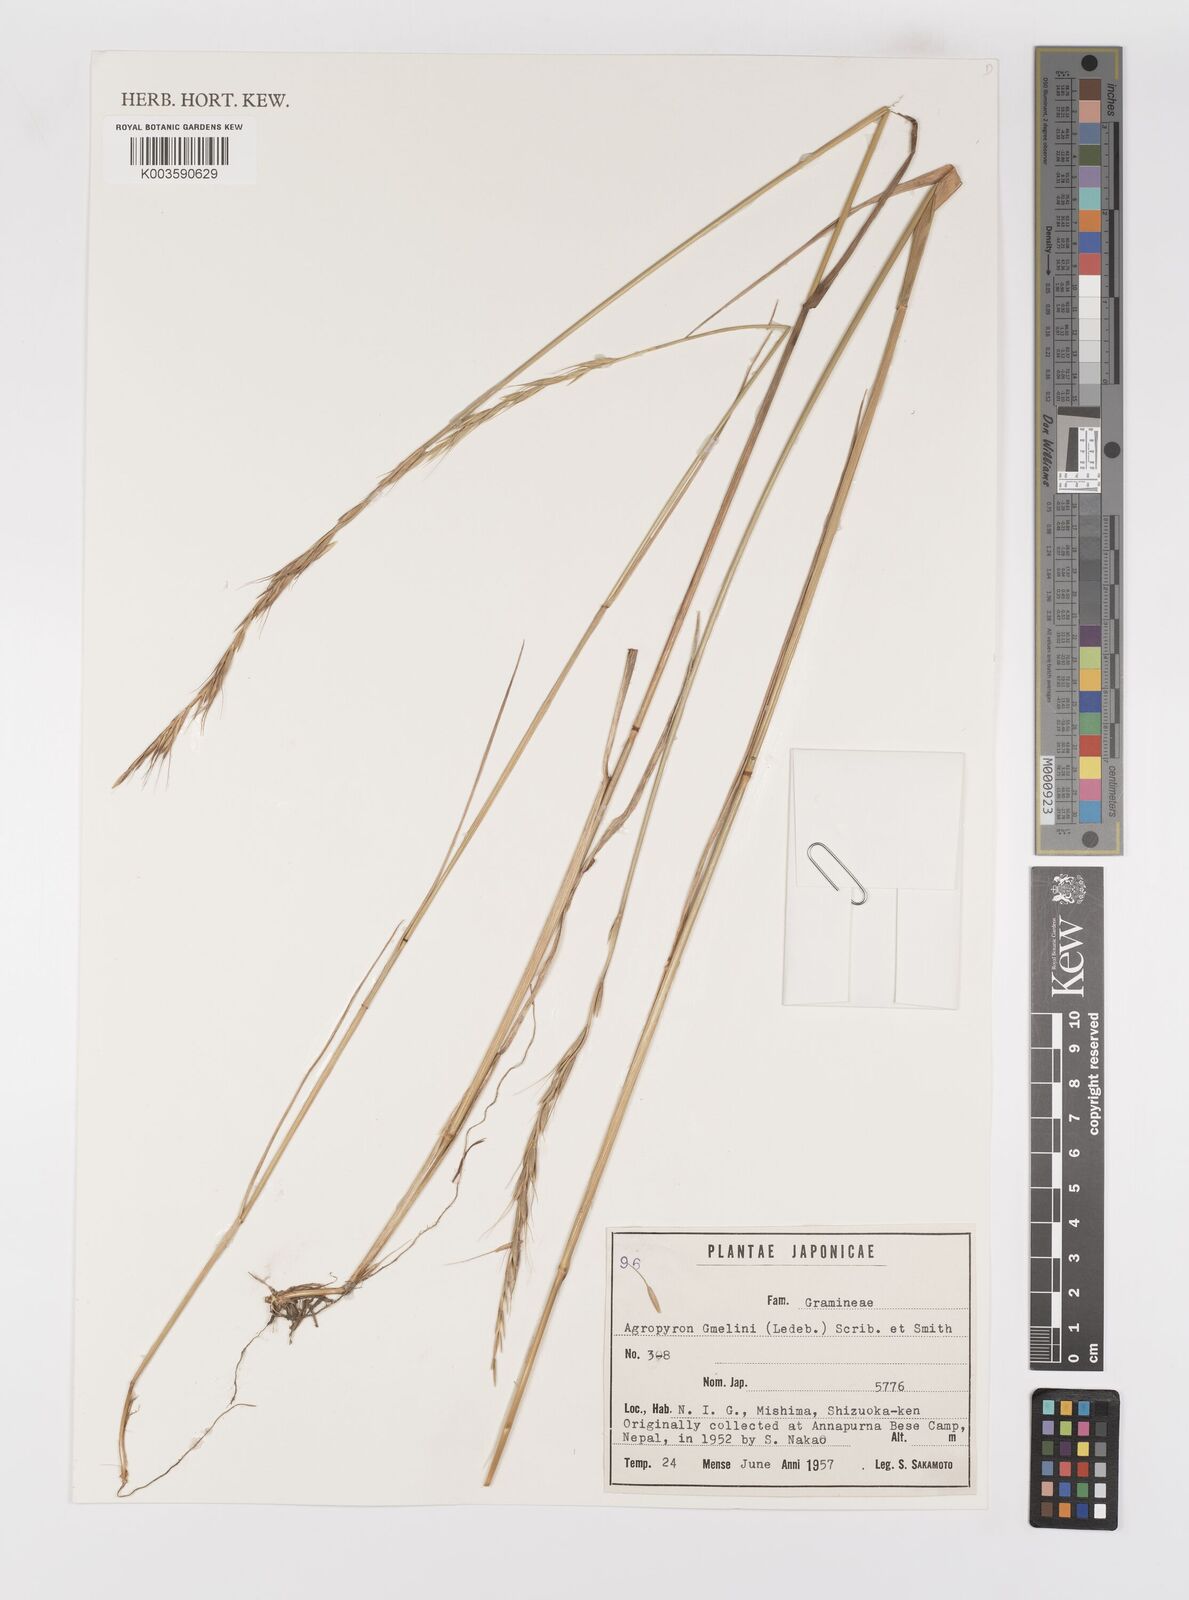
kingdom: Plantae
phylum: Tracheophyta
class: Liliopsida
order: Poales
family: Poaceae
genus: Elymus
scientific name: Elymus gmelinii
